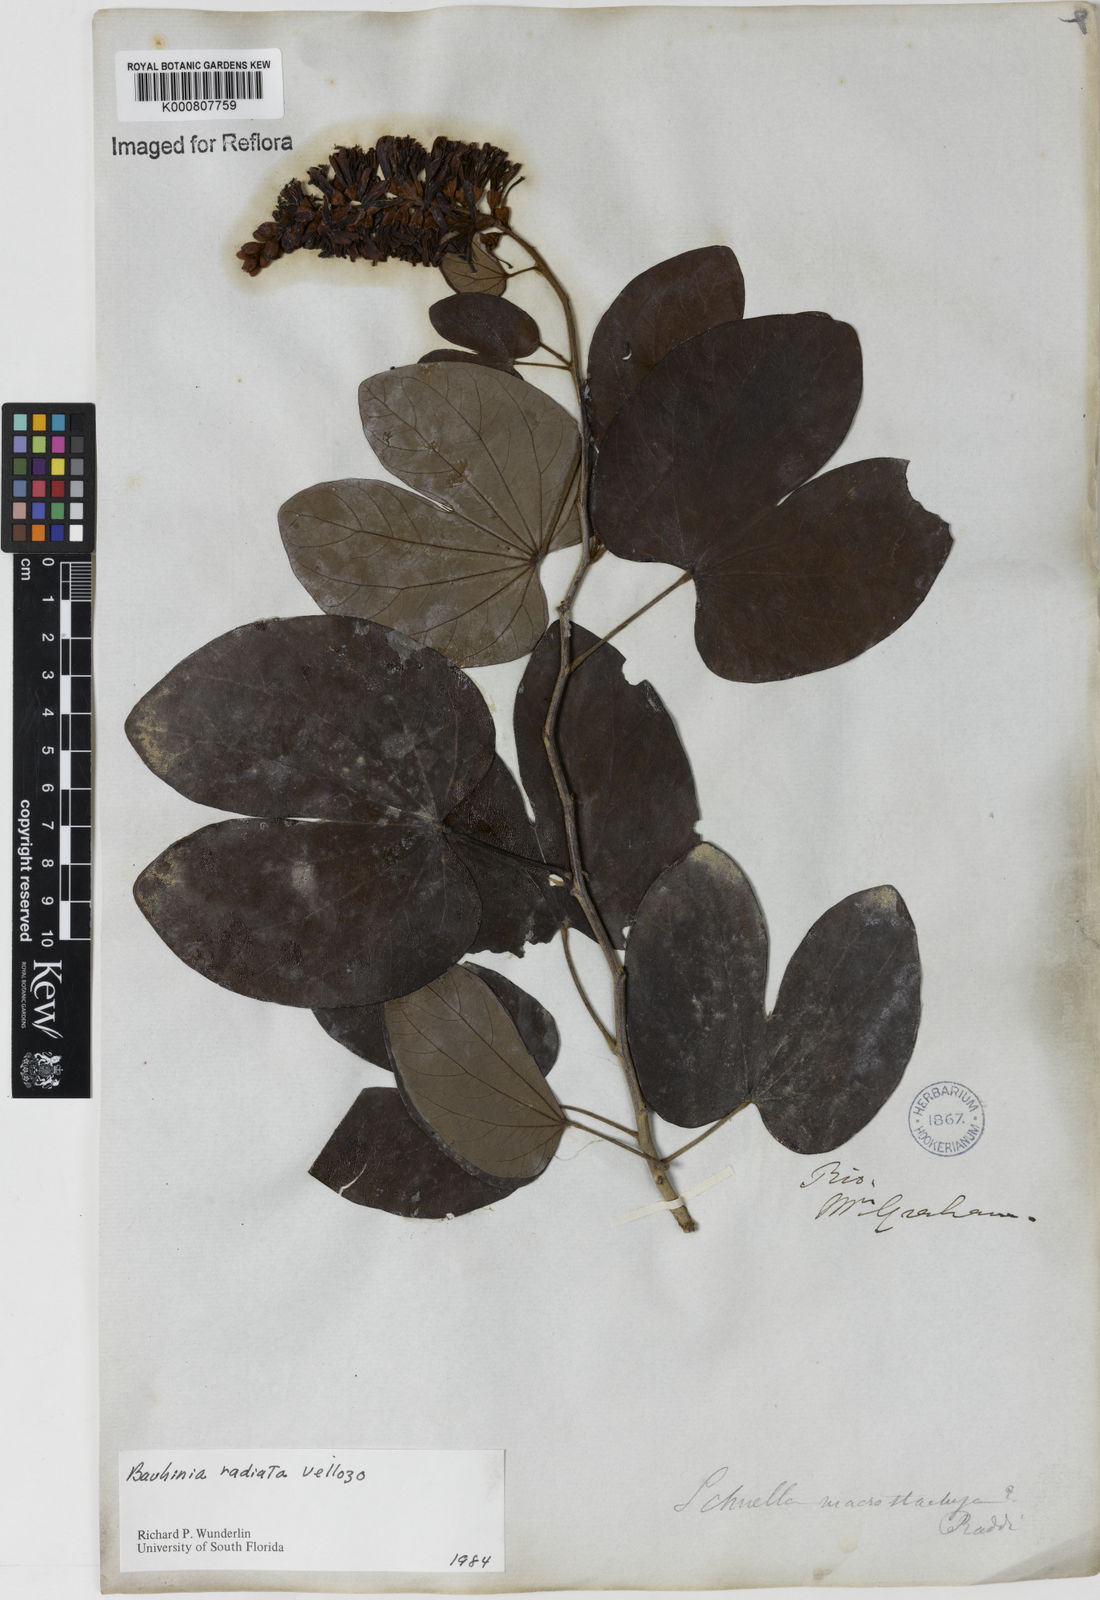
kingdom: Plantae
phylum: Tracheophyta
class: Magnoliopsida
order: Fabales
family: Fabaceae
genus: Schnella
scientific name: Schnella macrostachya
